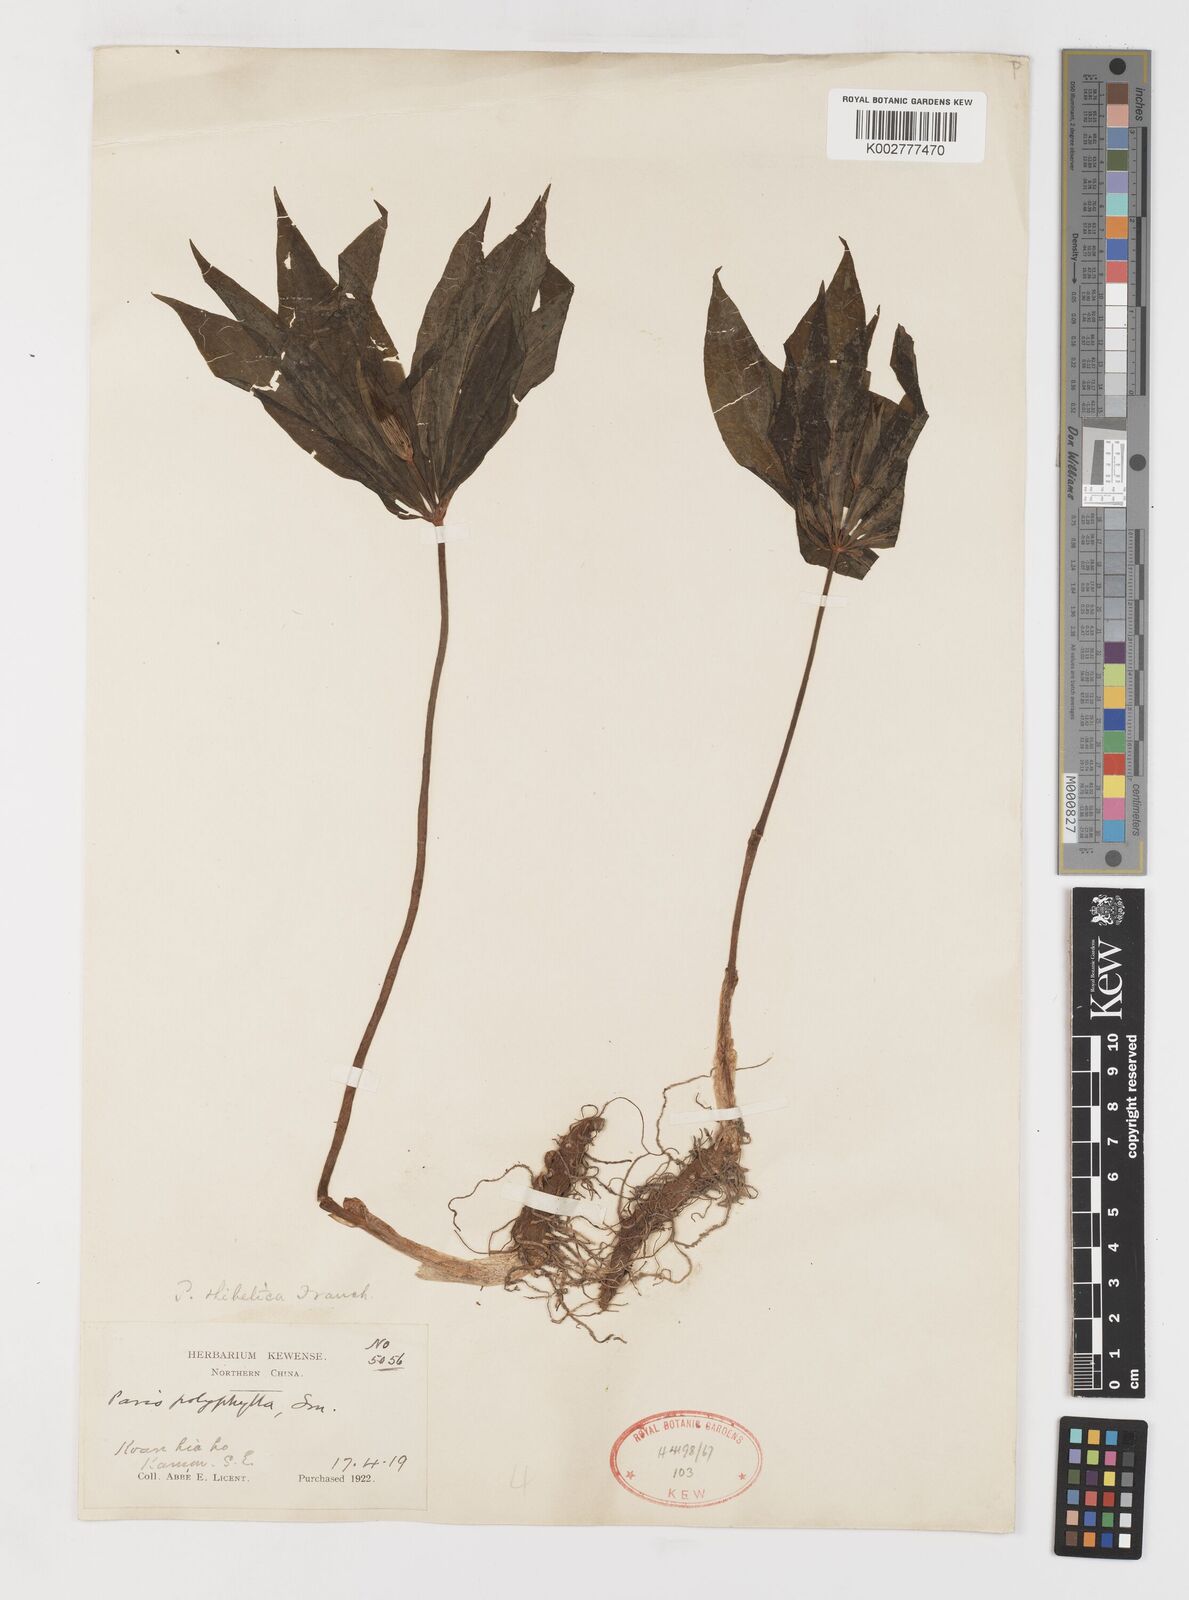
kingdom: Plantae
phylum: Tracheophyta
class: Liliopsida
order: Liliales
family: Melanthiaceae
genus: Paris
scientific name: Paris thibetica
